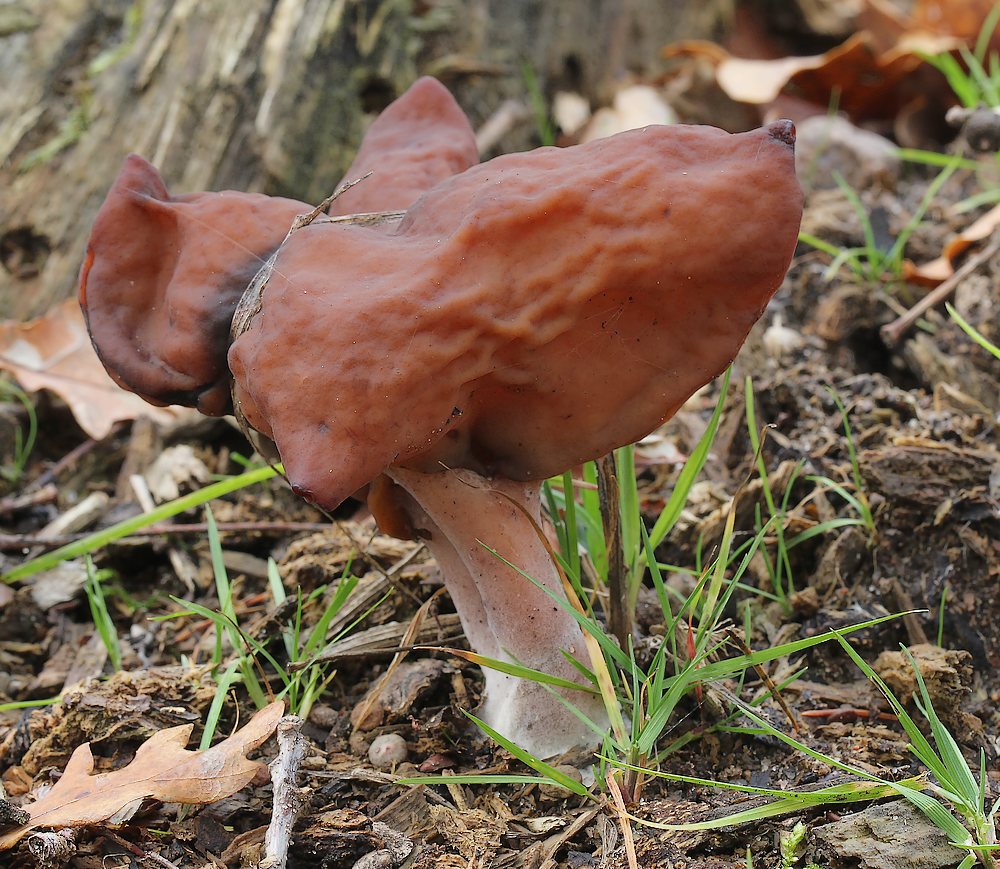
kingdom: Fungi
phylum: Ascomycota
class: Pezizomycetes
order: Pezizales
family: Discinaceae
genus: Gyromitra
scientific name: Gyromitra infula
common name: bispehue-stenmorkel
